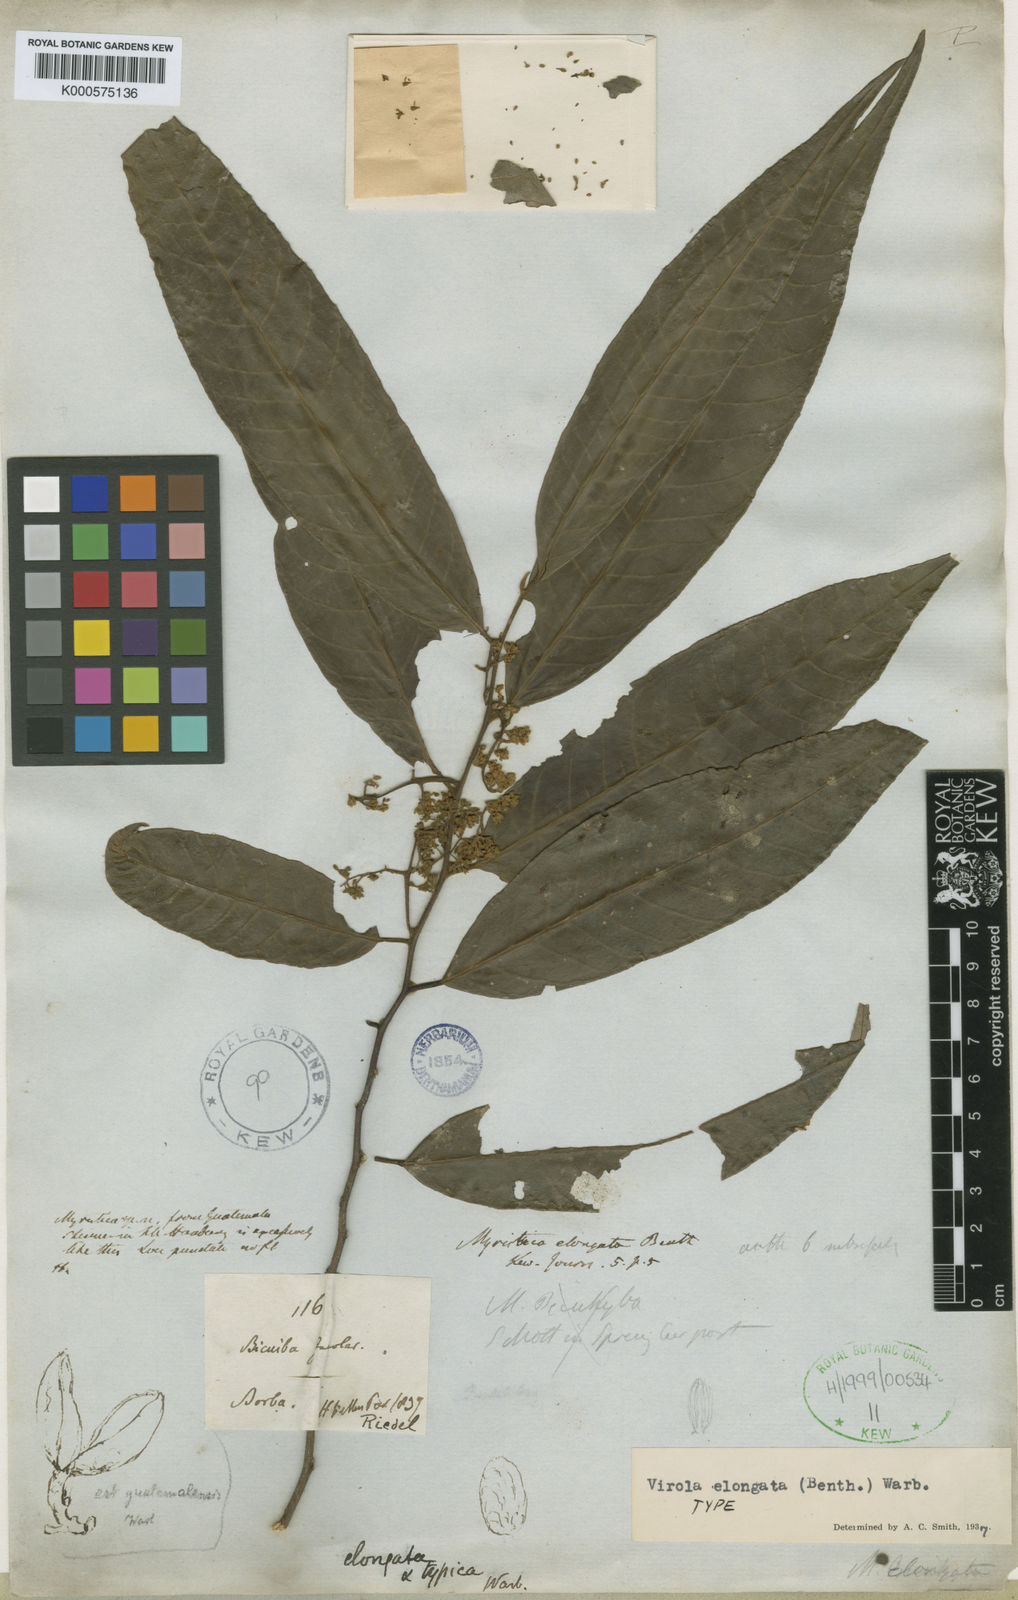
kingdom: Plantae
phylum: Tracheophyta
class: Magnoliopsida
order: Magnoliales
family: Myristicaceae
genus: Virola
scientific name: Virola elongata
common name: Sacred virola
